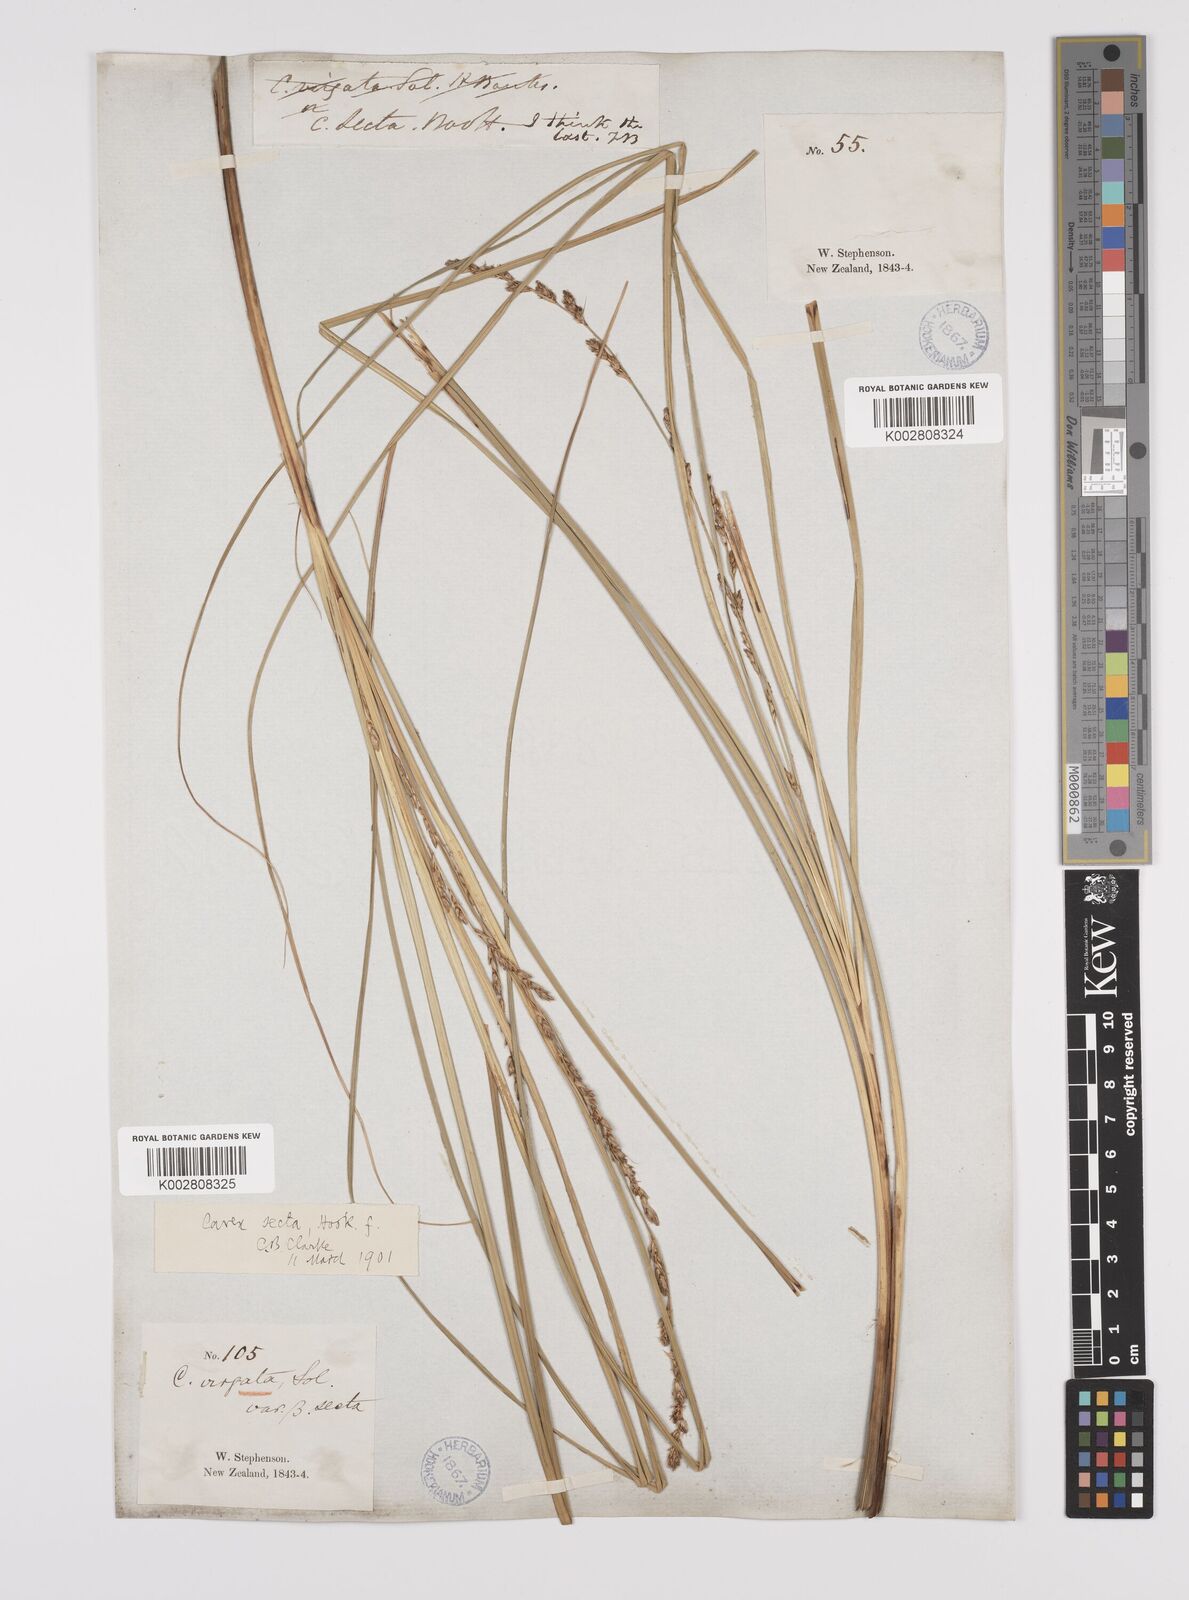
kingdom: Plantae
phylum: Tracheophyta
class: Liliopsida
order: Poales
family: Cyperaceae
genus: Carex
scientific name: Carex appressa
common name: Tussock sedge
